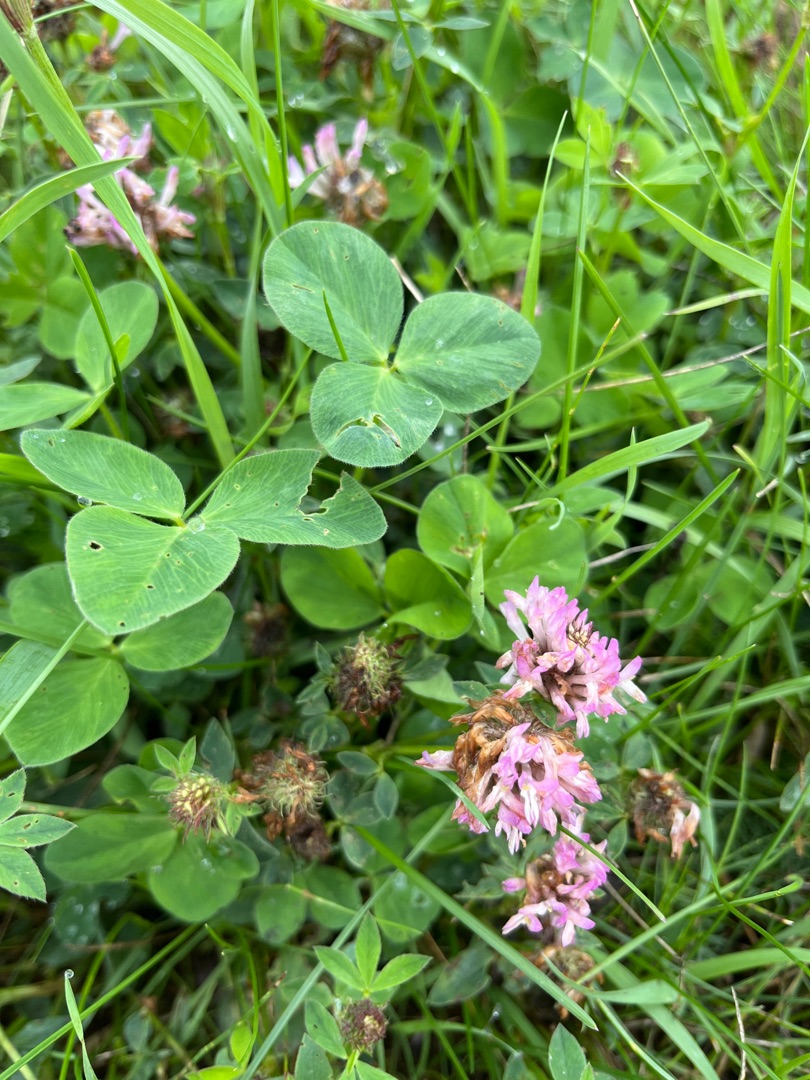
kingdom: Plantae
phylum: Tracheophyta
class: Magnoliopsida
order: Fabales
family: Fabaceae
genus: Trifolium
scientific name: Trifolium pratense
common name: Rød-kløver
